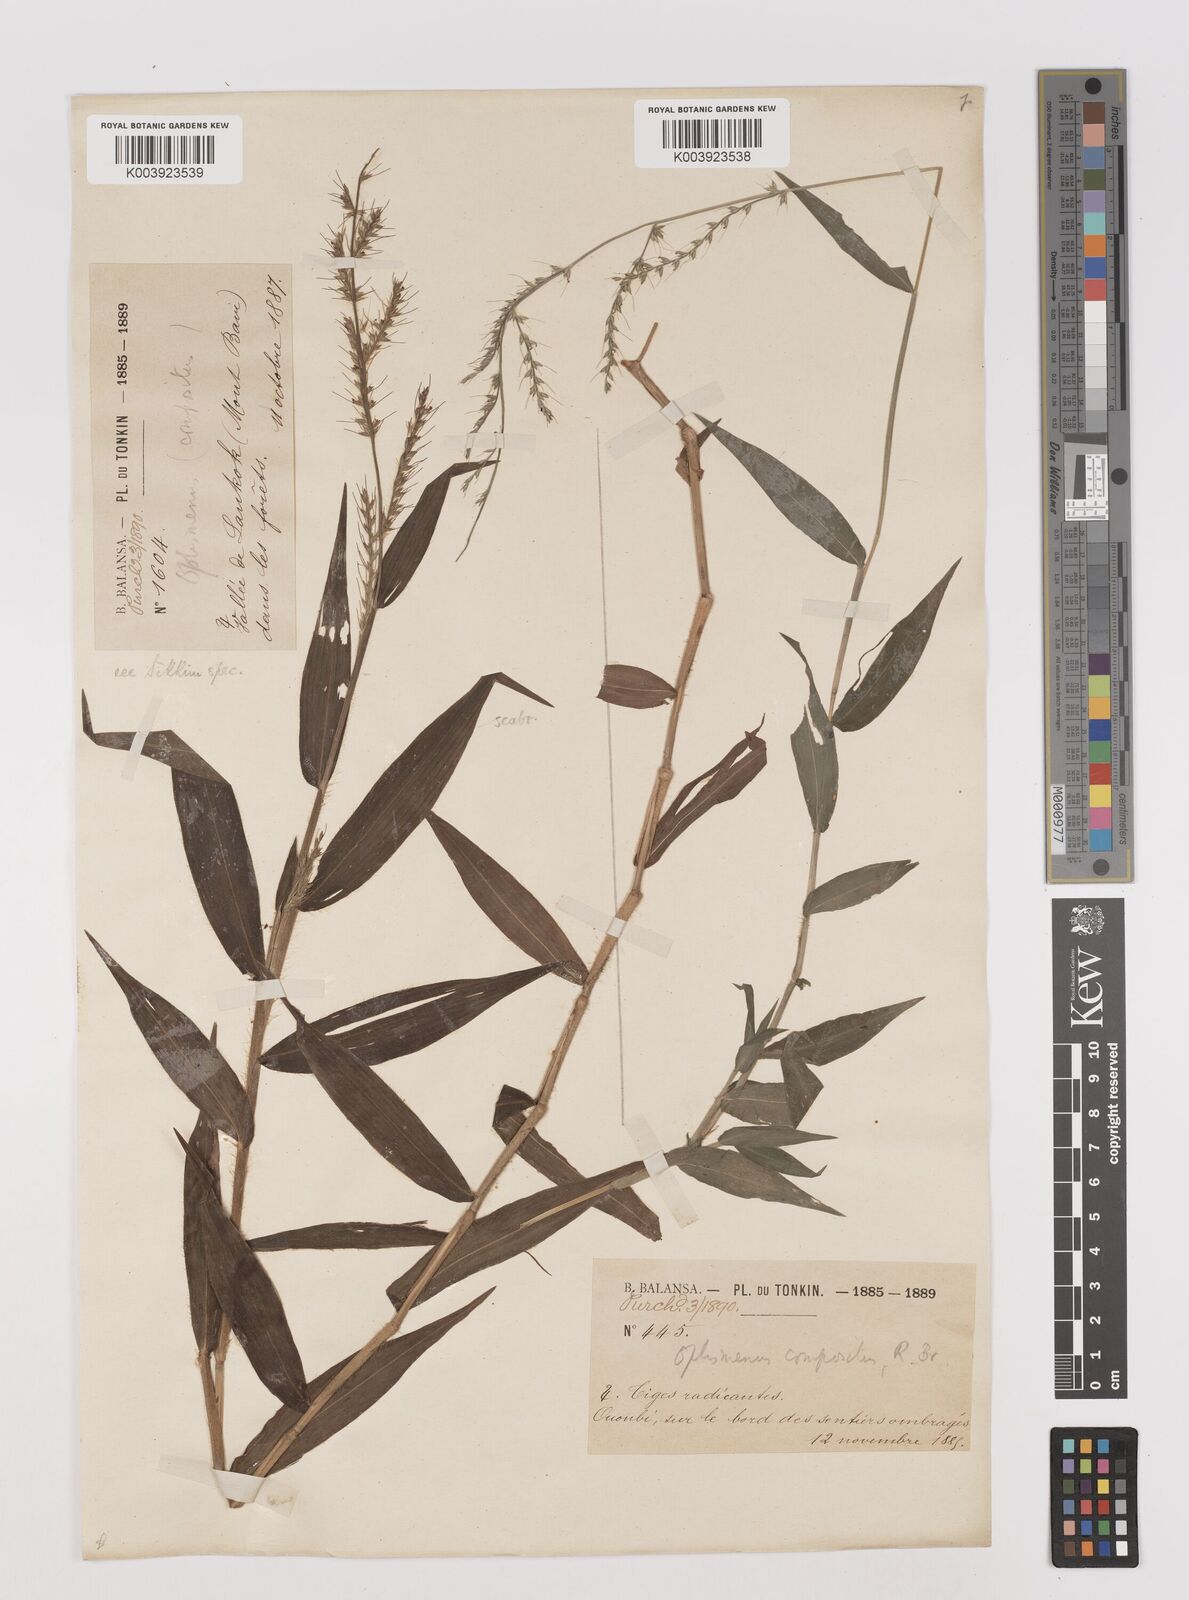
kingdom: Plantae
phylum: Tracheophyta
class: Liliopsida
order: Poales
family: Poaceae
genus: Oplismenus
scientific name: Oplismenus compositus
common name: Running mountain grass
